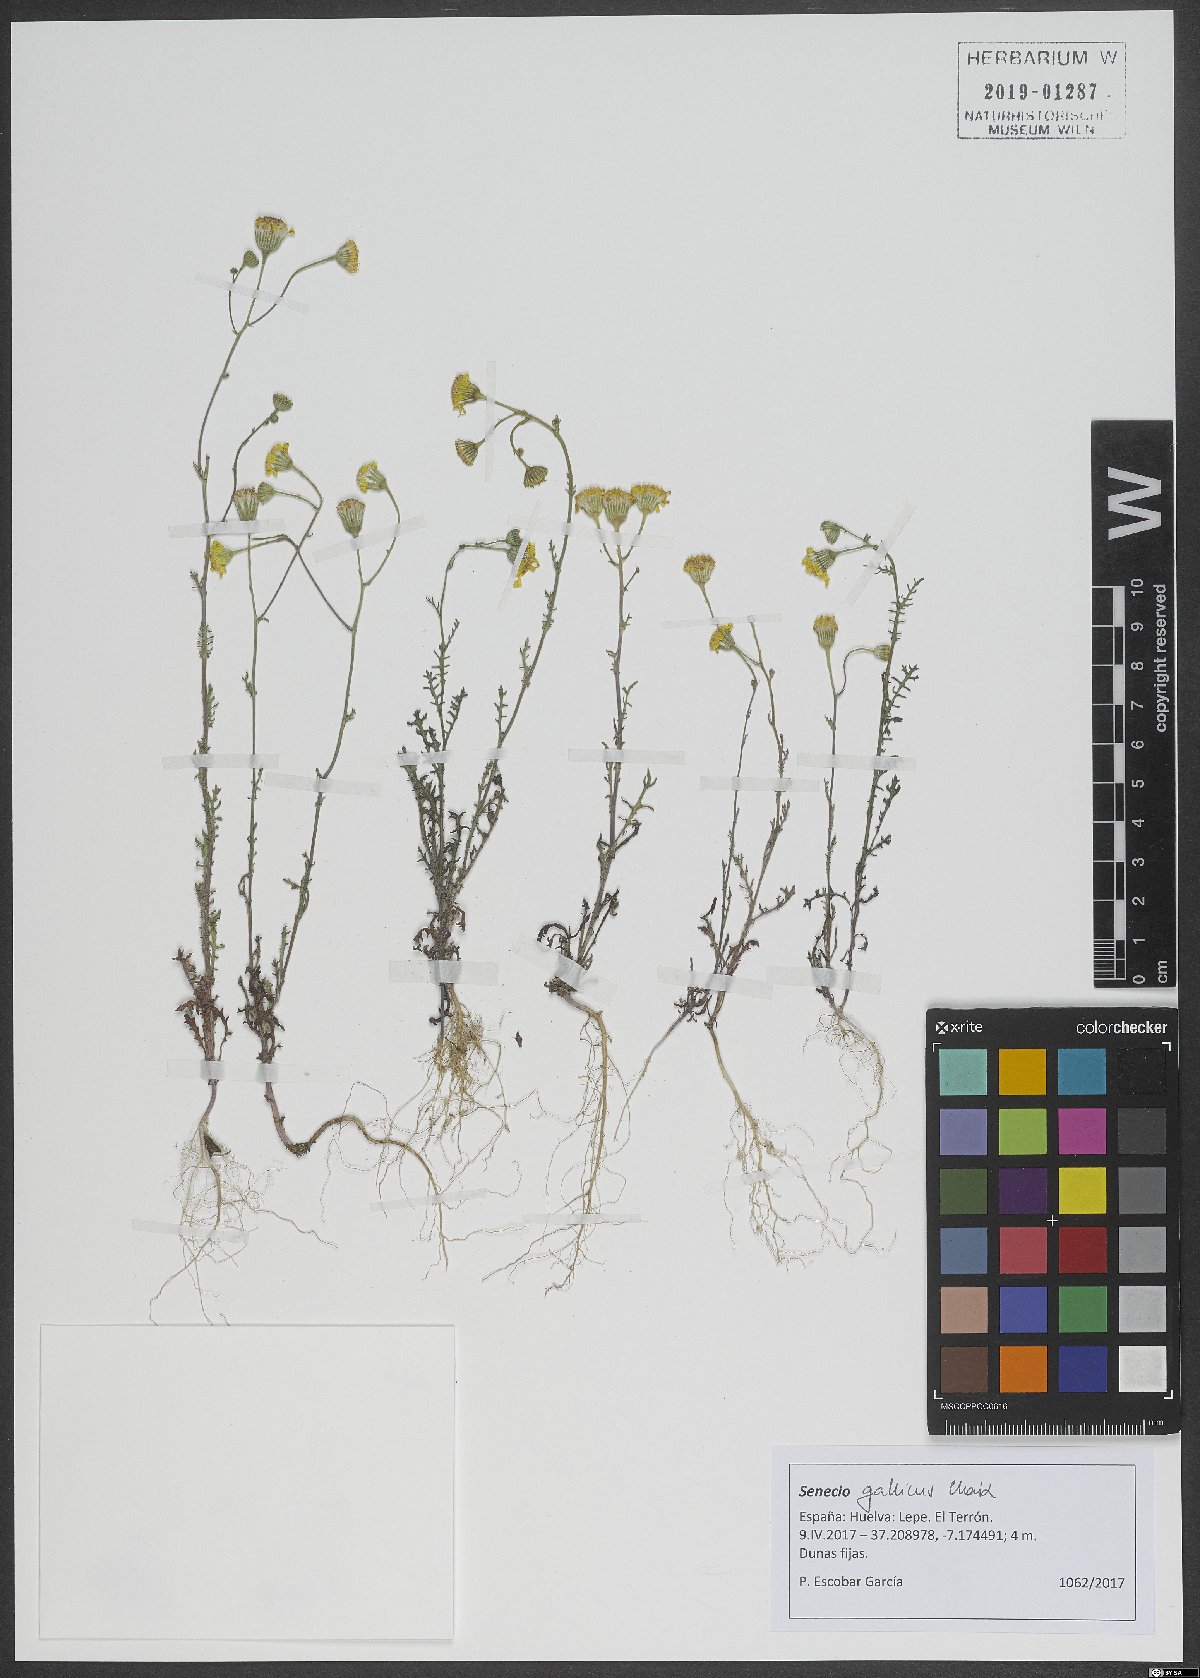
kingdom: Plantae
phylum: Tracheophyta
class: Magnoliopsida
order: Asterales
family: Asteraceae
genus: Senecio
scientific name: Senecio gallicus
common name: French groundsel
